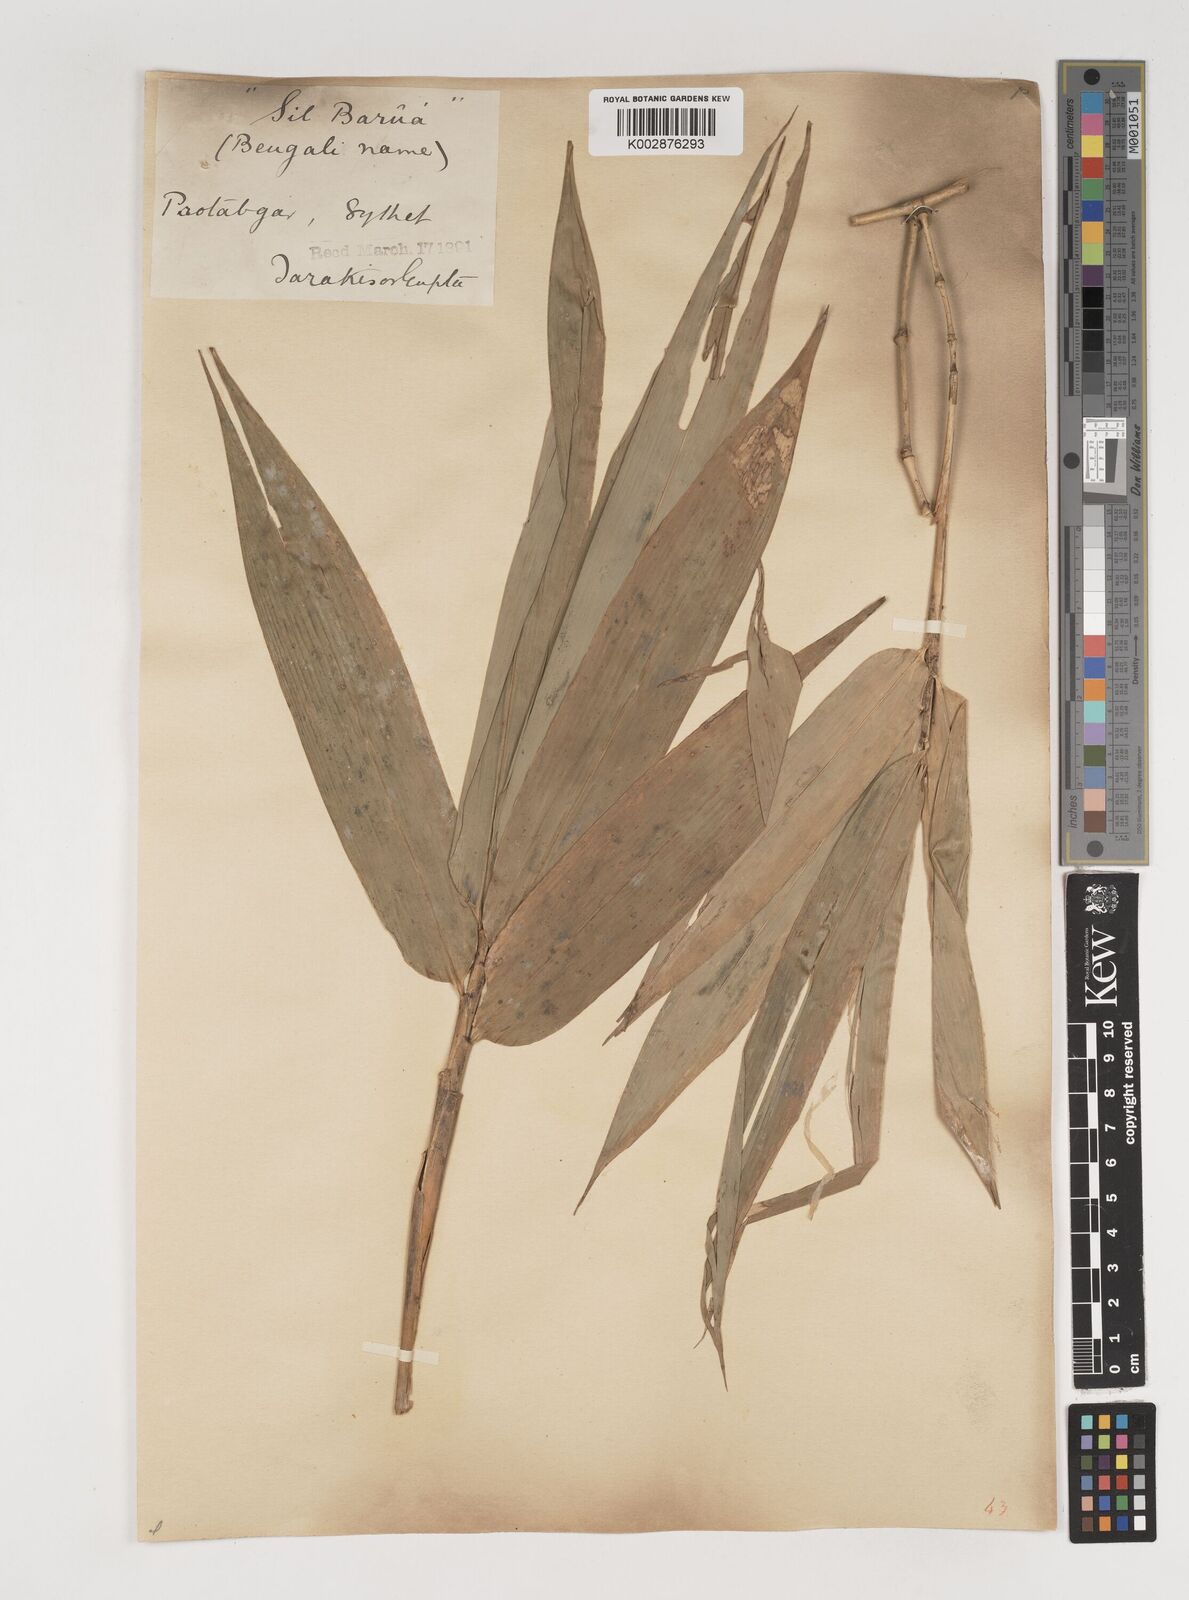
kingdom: Plantae
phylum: Tracheophyta
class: Liliopsida
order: Poales
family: Poaceae
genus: Bambusa
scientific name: Bambusa balcooa
